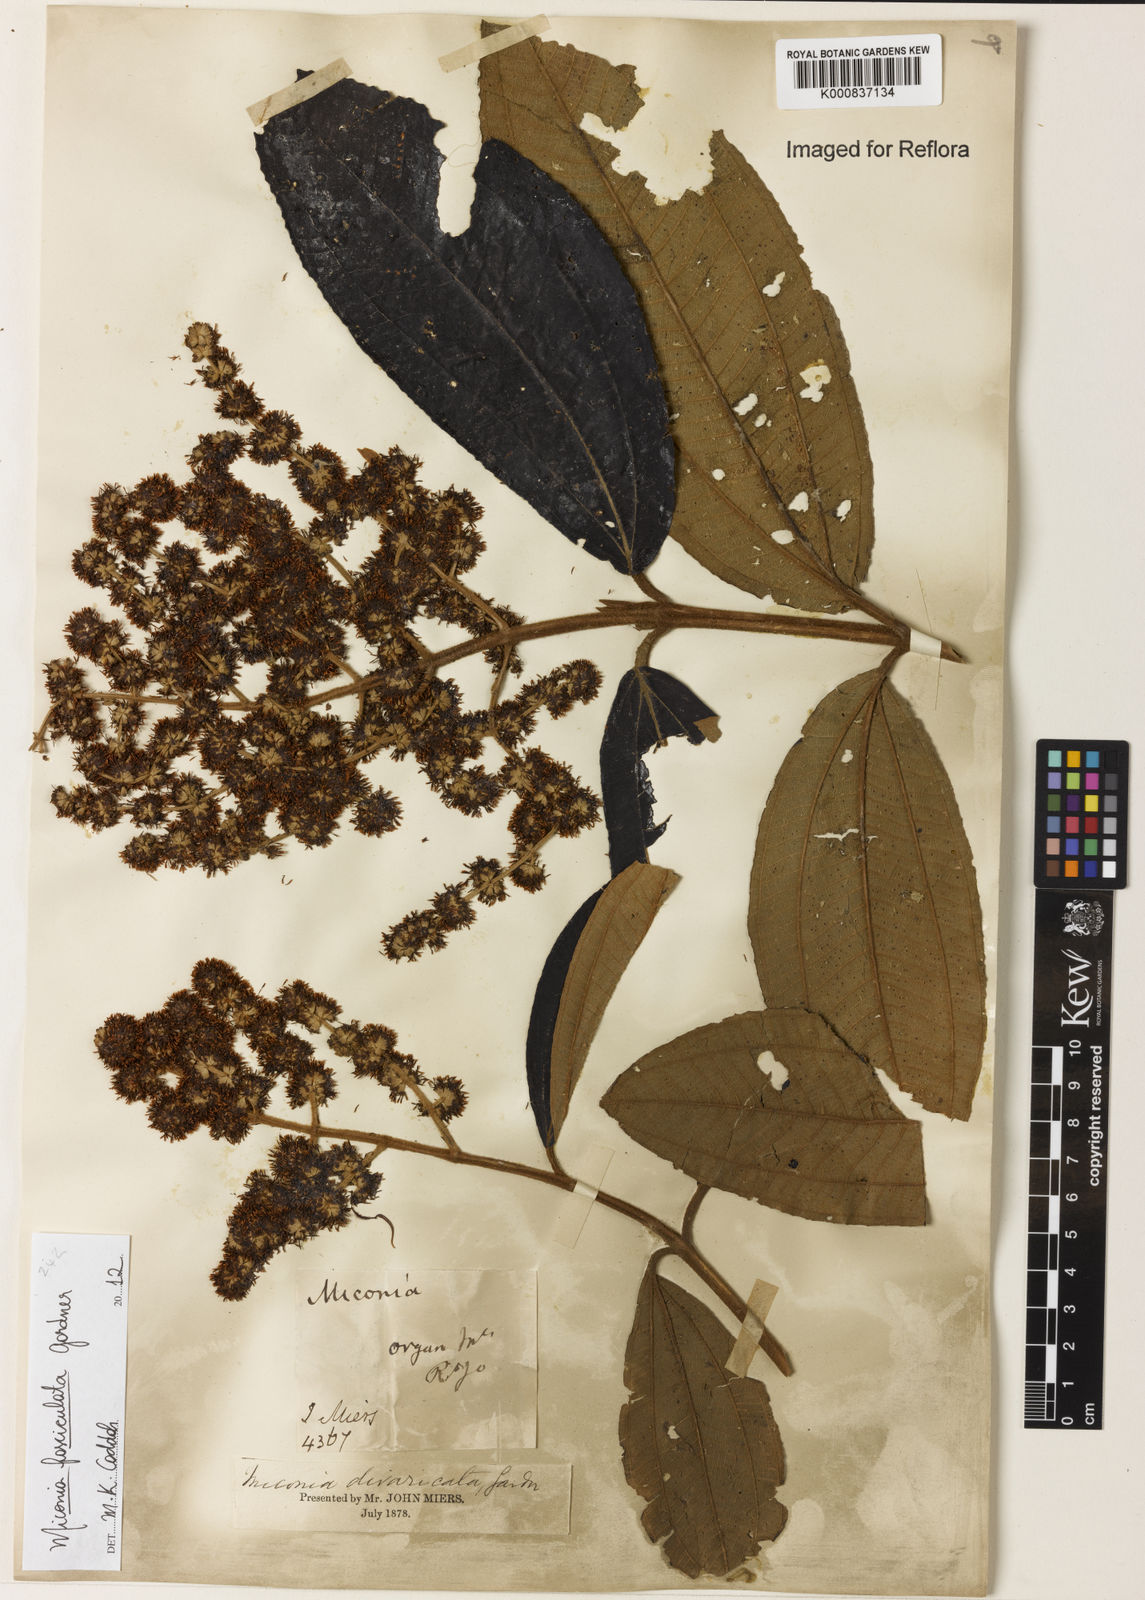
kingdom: Plantae
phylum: Tracheophyta
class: Magnoliopsida
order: Myrtales
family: Melastomataceae
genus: Miconia
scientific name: Miconia fasciculata
